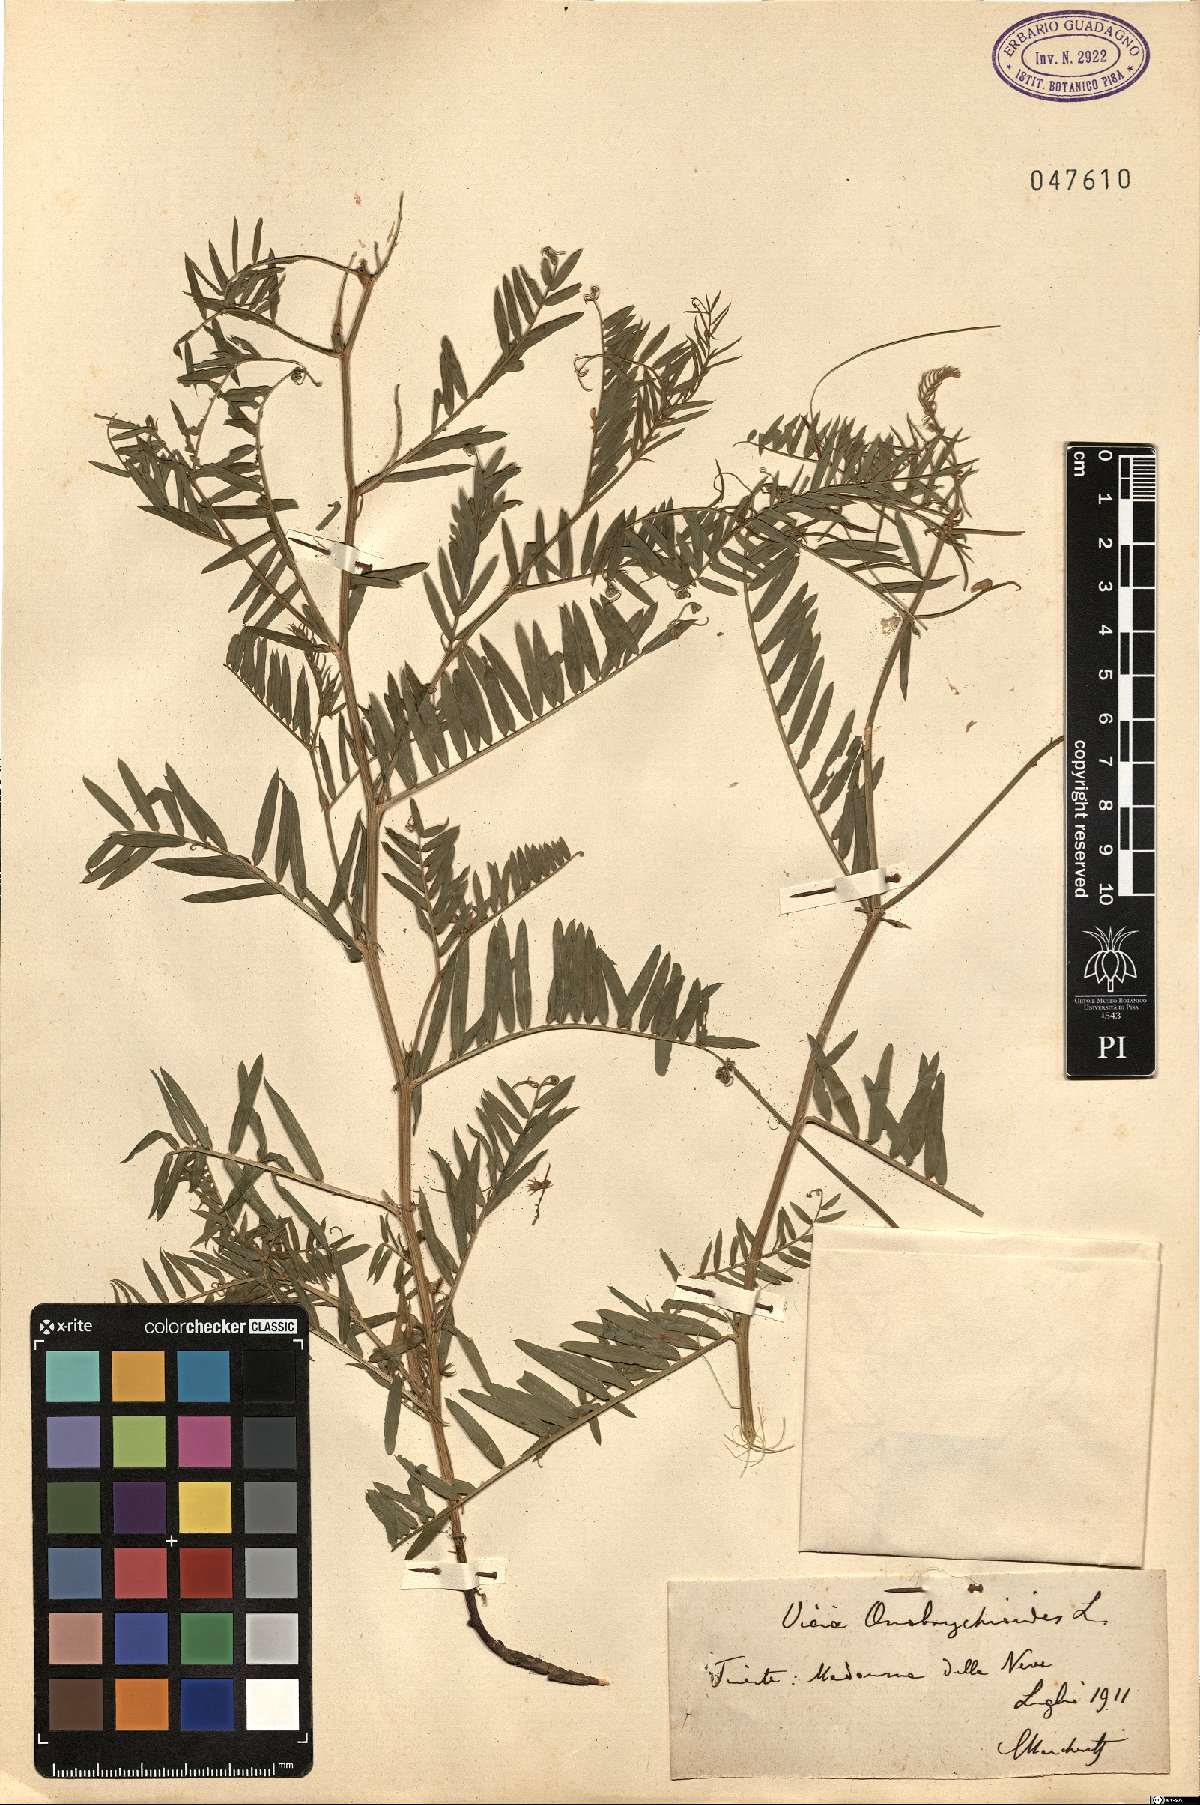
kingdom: Plantae
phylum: Tracheophyta
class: Magnoliopsida
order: Fabales
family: Fabaceae
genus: Vicia
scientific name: Vicia onobrychioides
